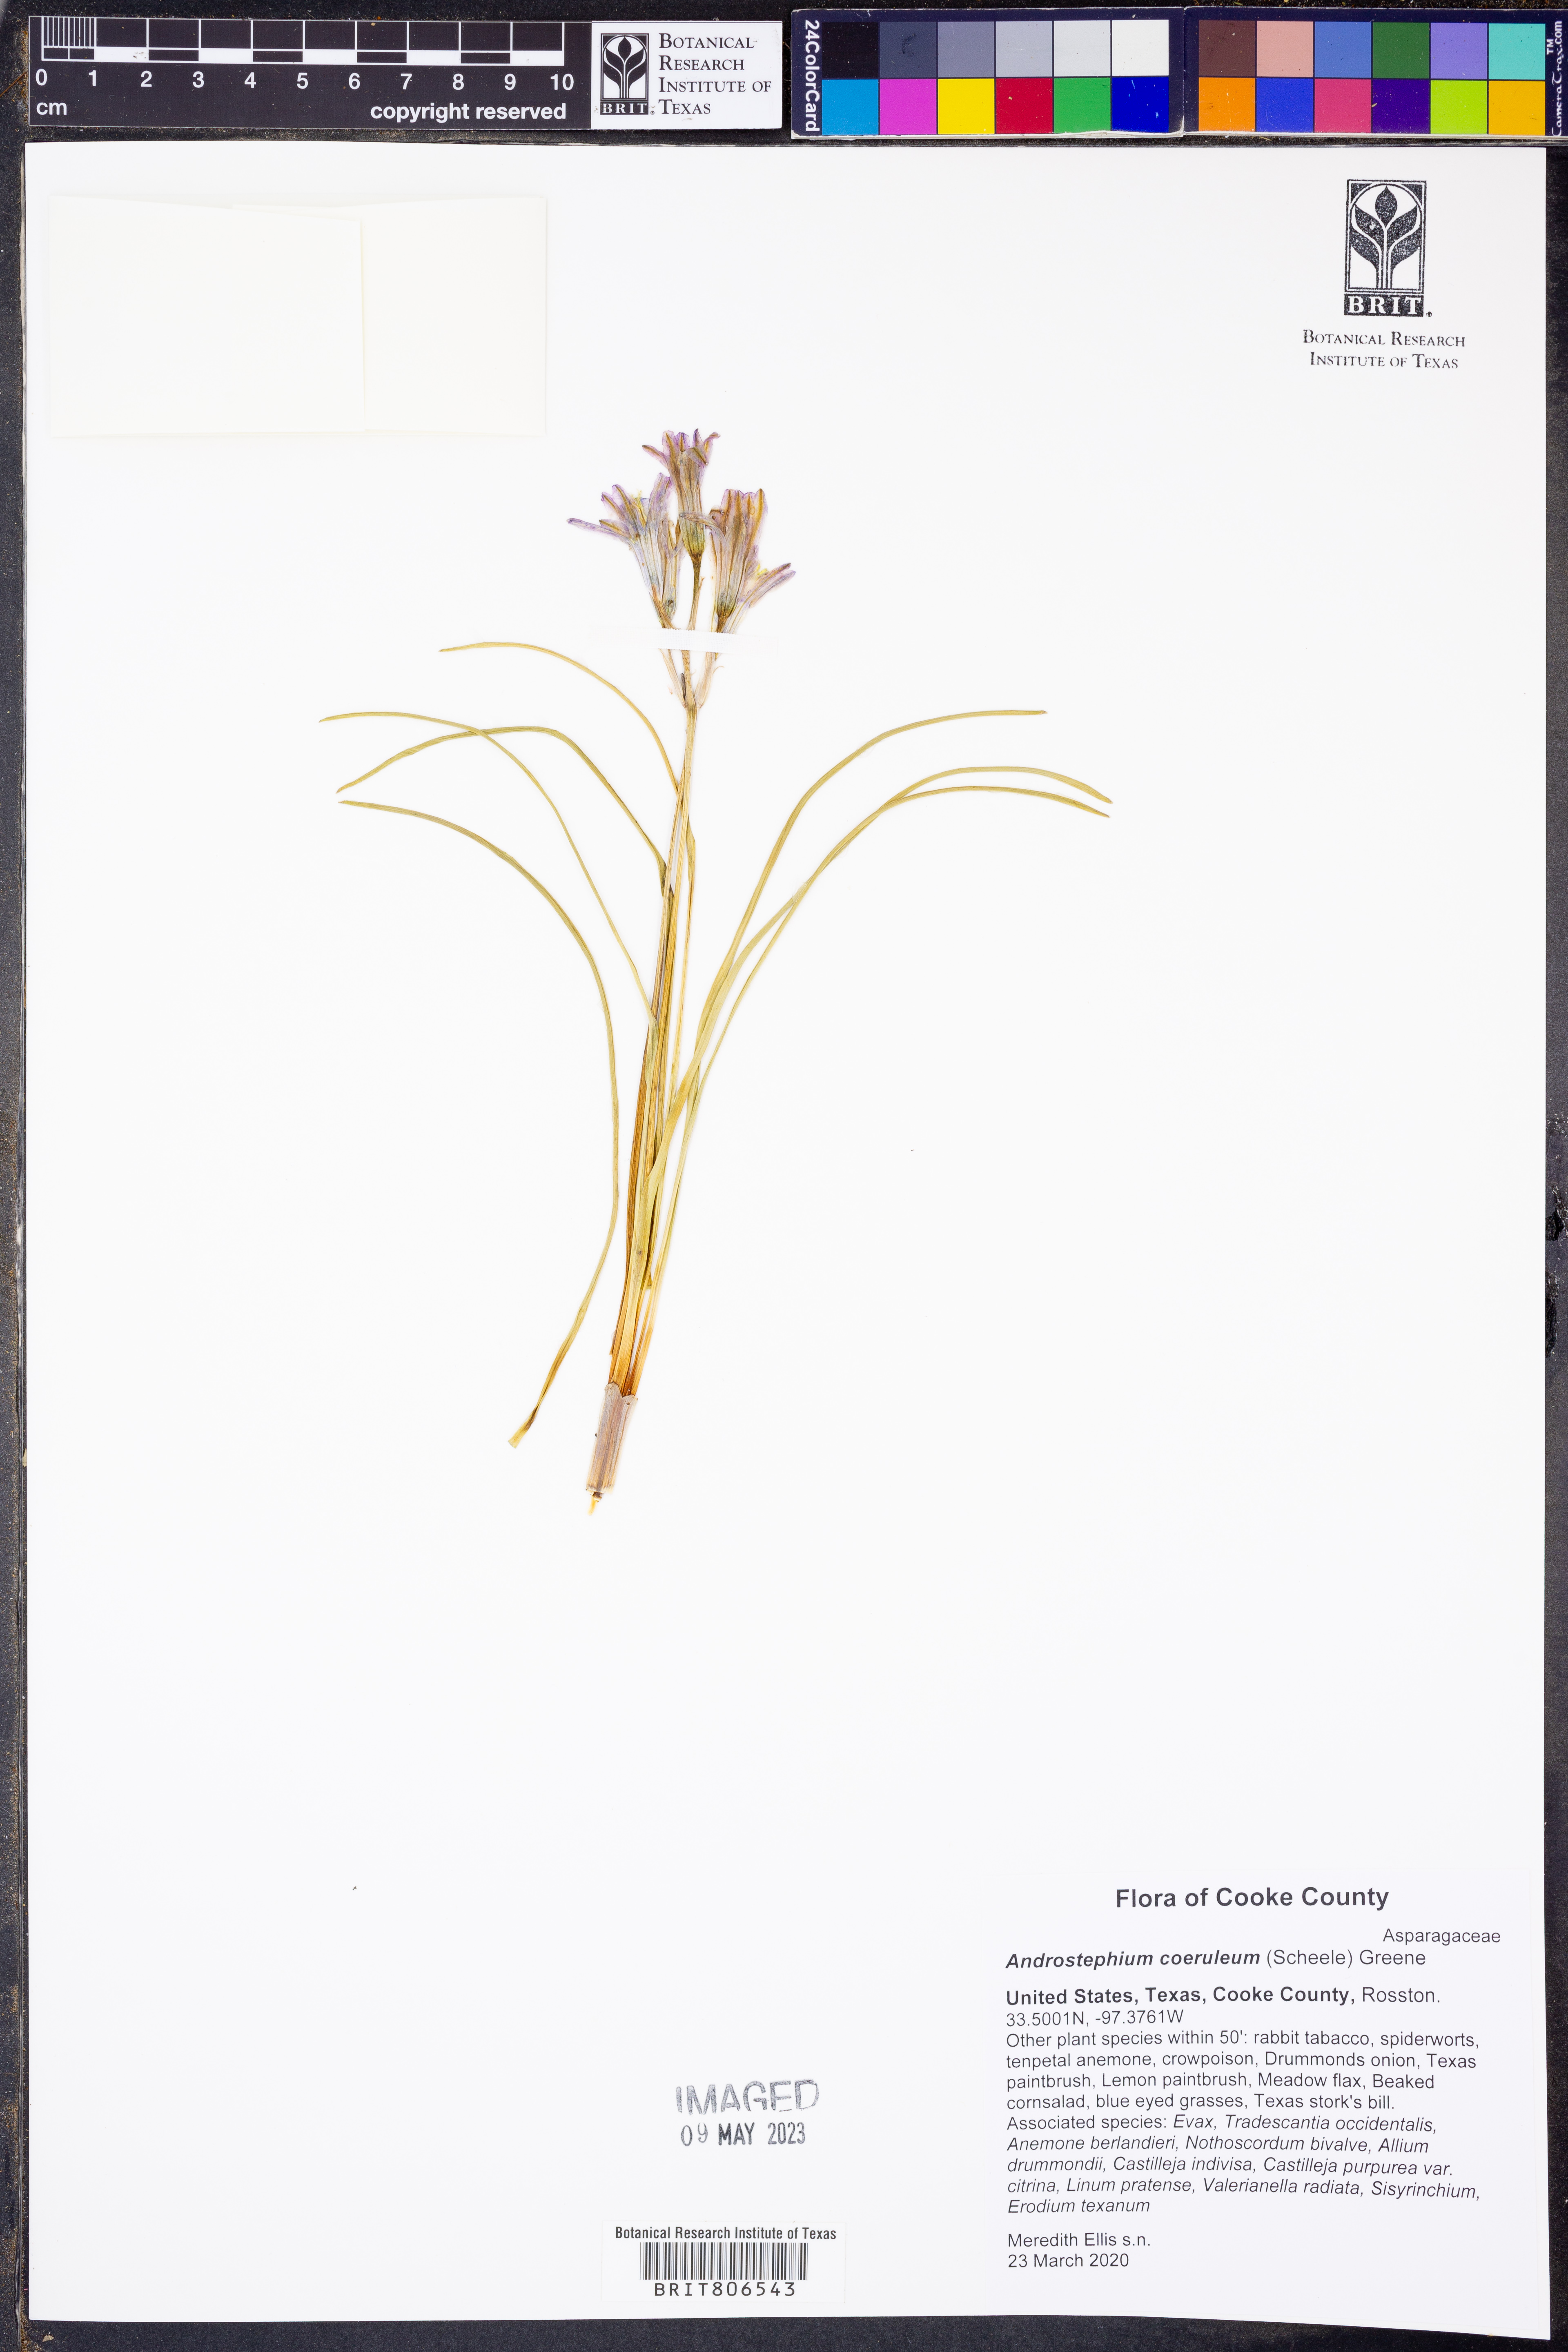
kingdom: Plantae
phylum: Tracheophyta
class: Liliopsida
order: Asparagales
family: Asparagaceae
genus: Androstephium
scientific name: Androstephium coeruleum
